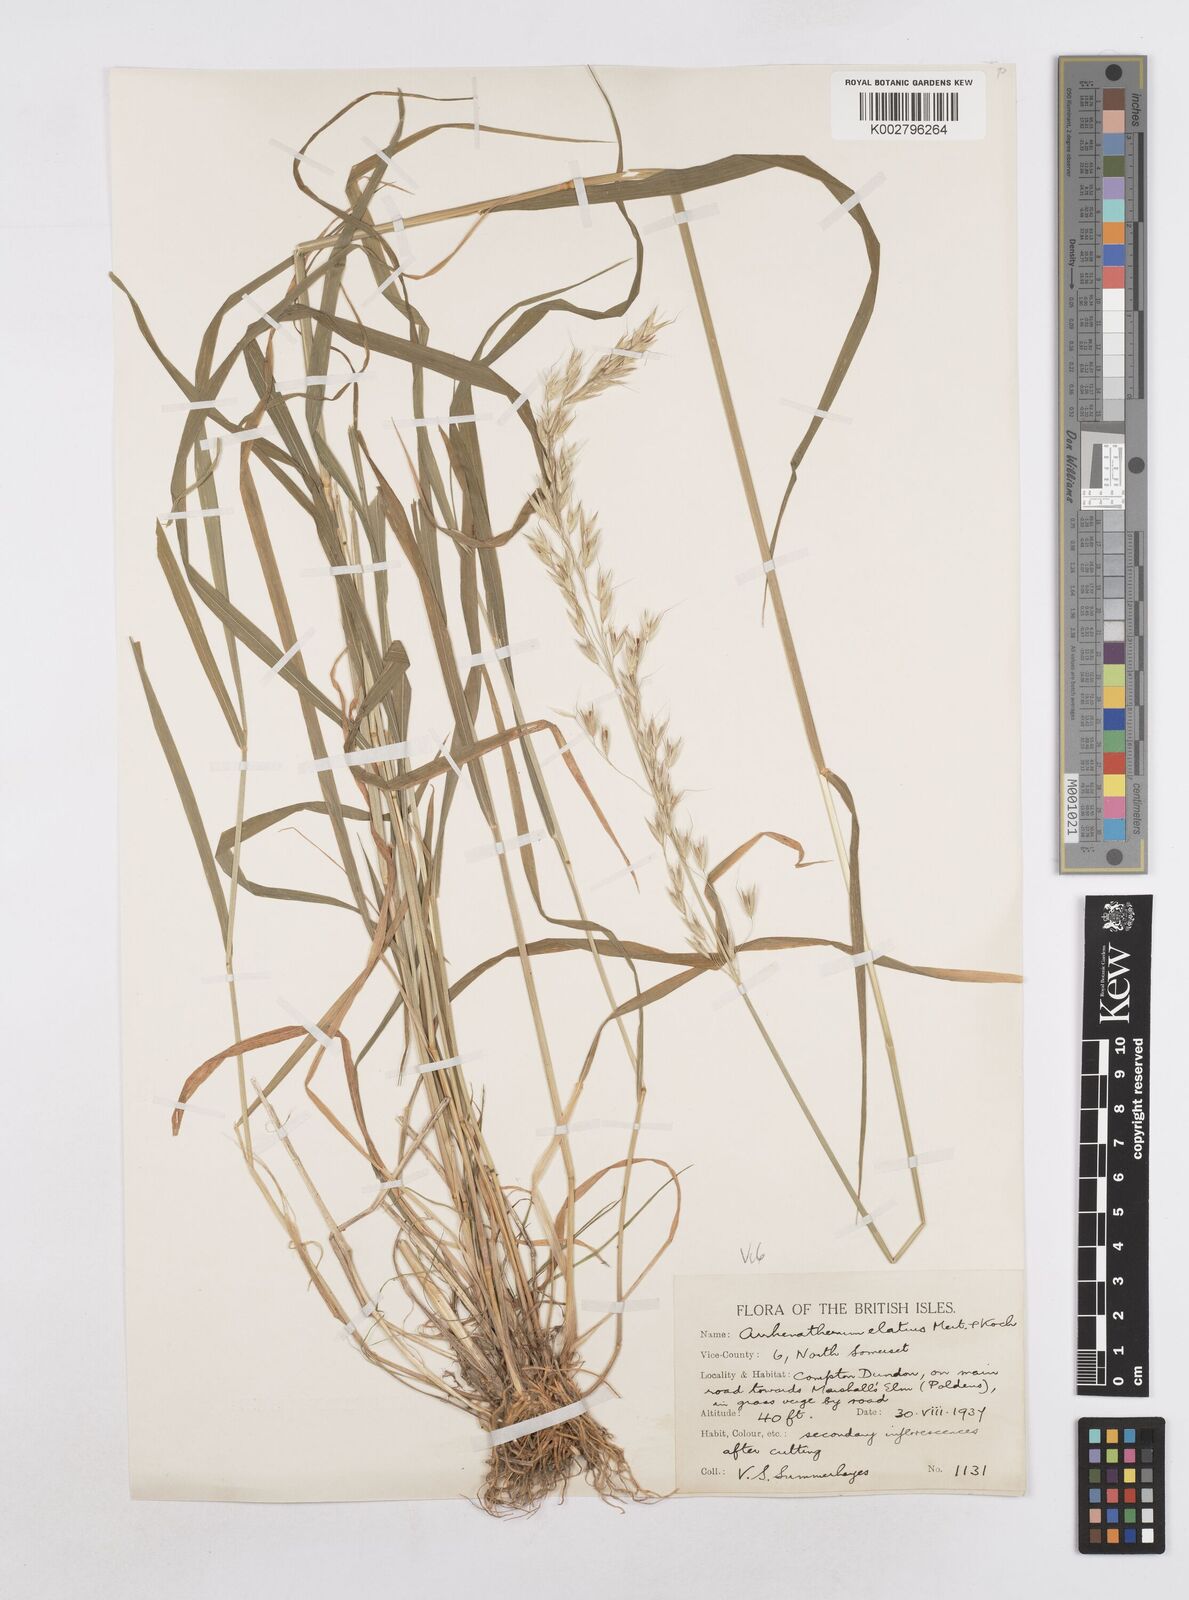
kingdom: Plantae
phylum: Tracheophyta
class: Liliopsida
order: Poales
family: Poaceae
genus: Arrhenatherum
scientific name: Arrhenatherum elatius
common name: Tall oatgrass
